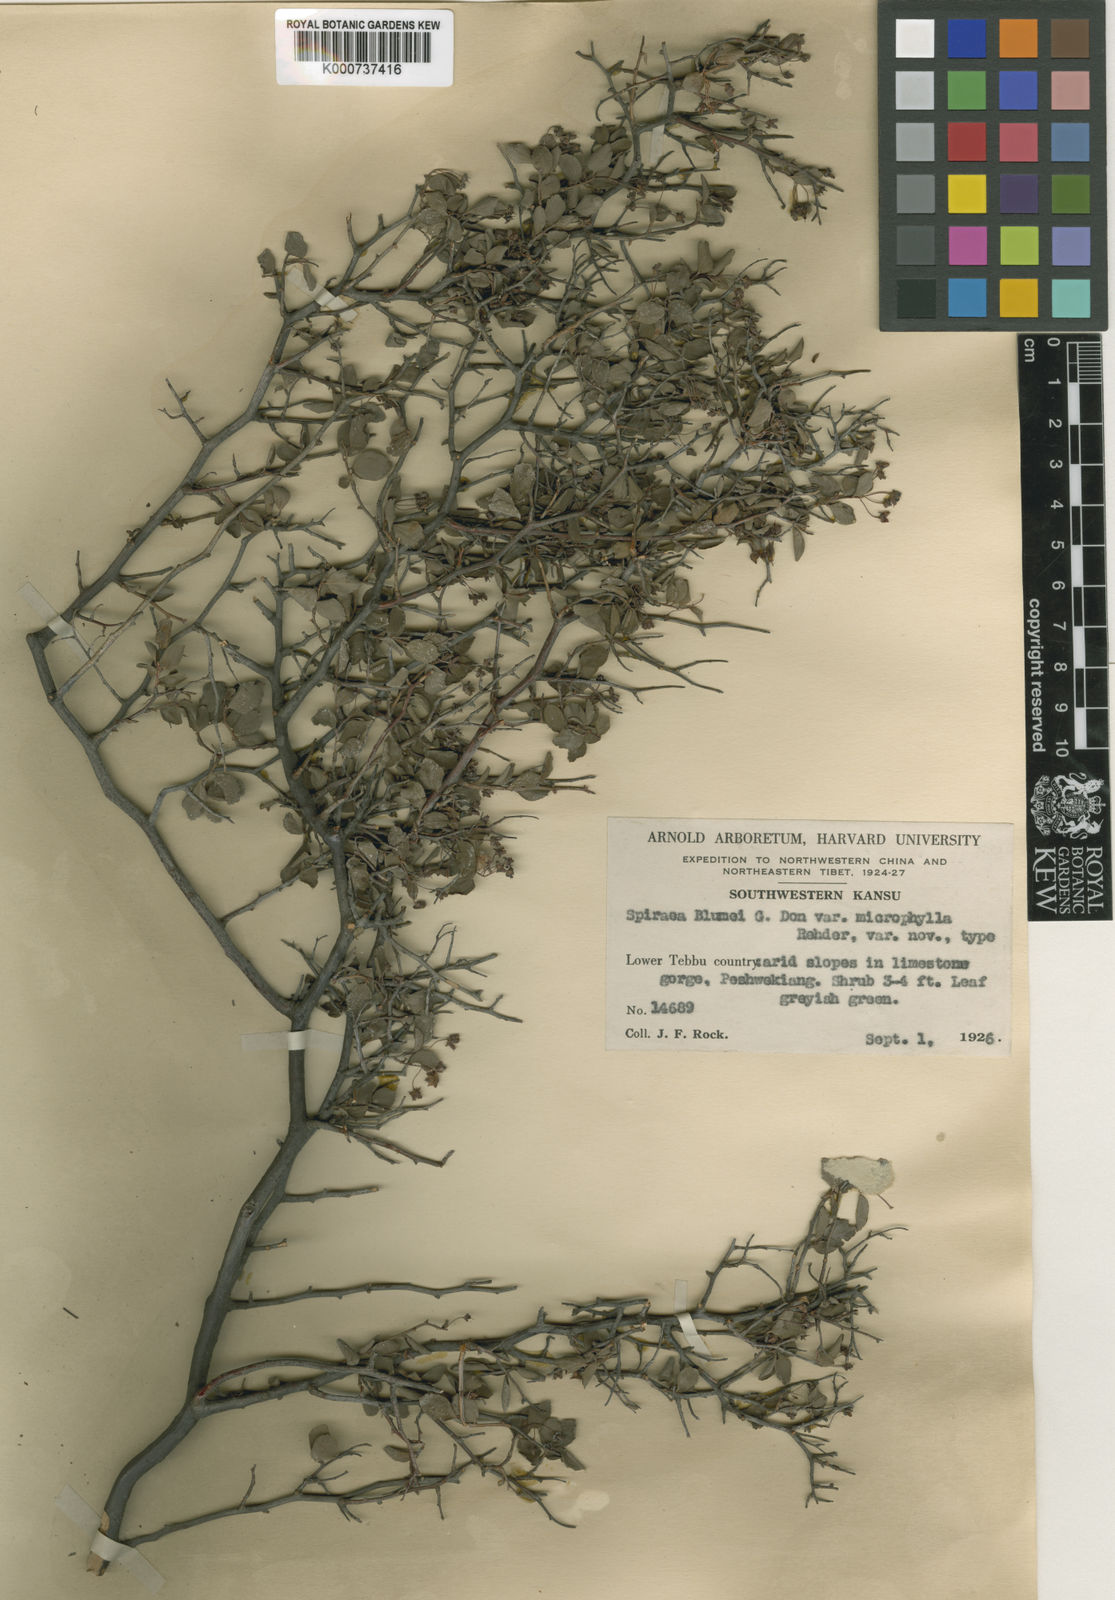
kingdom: Plantae
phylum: Tracheophyta
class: Magnoliopsida
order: Rosales
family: Rosaceae
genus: Spiraea
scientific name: Spiraea blumei
